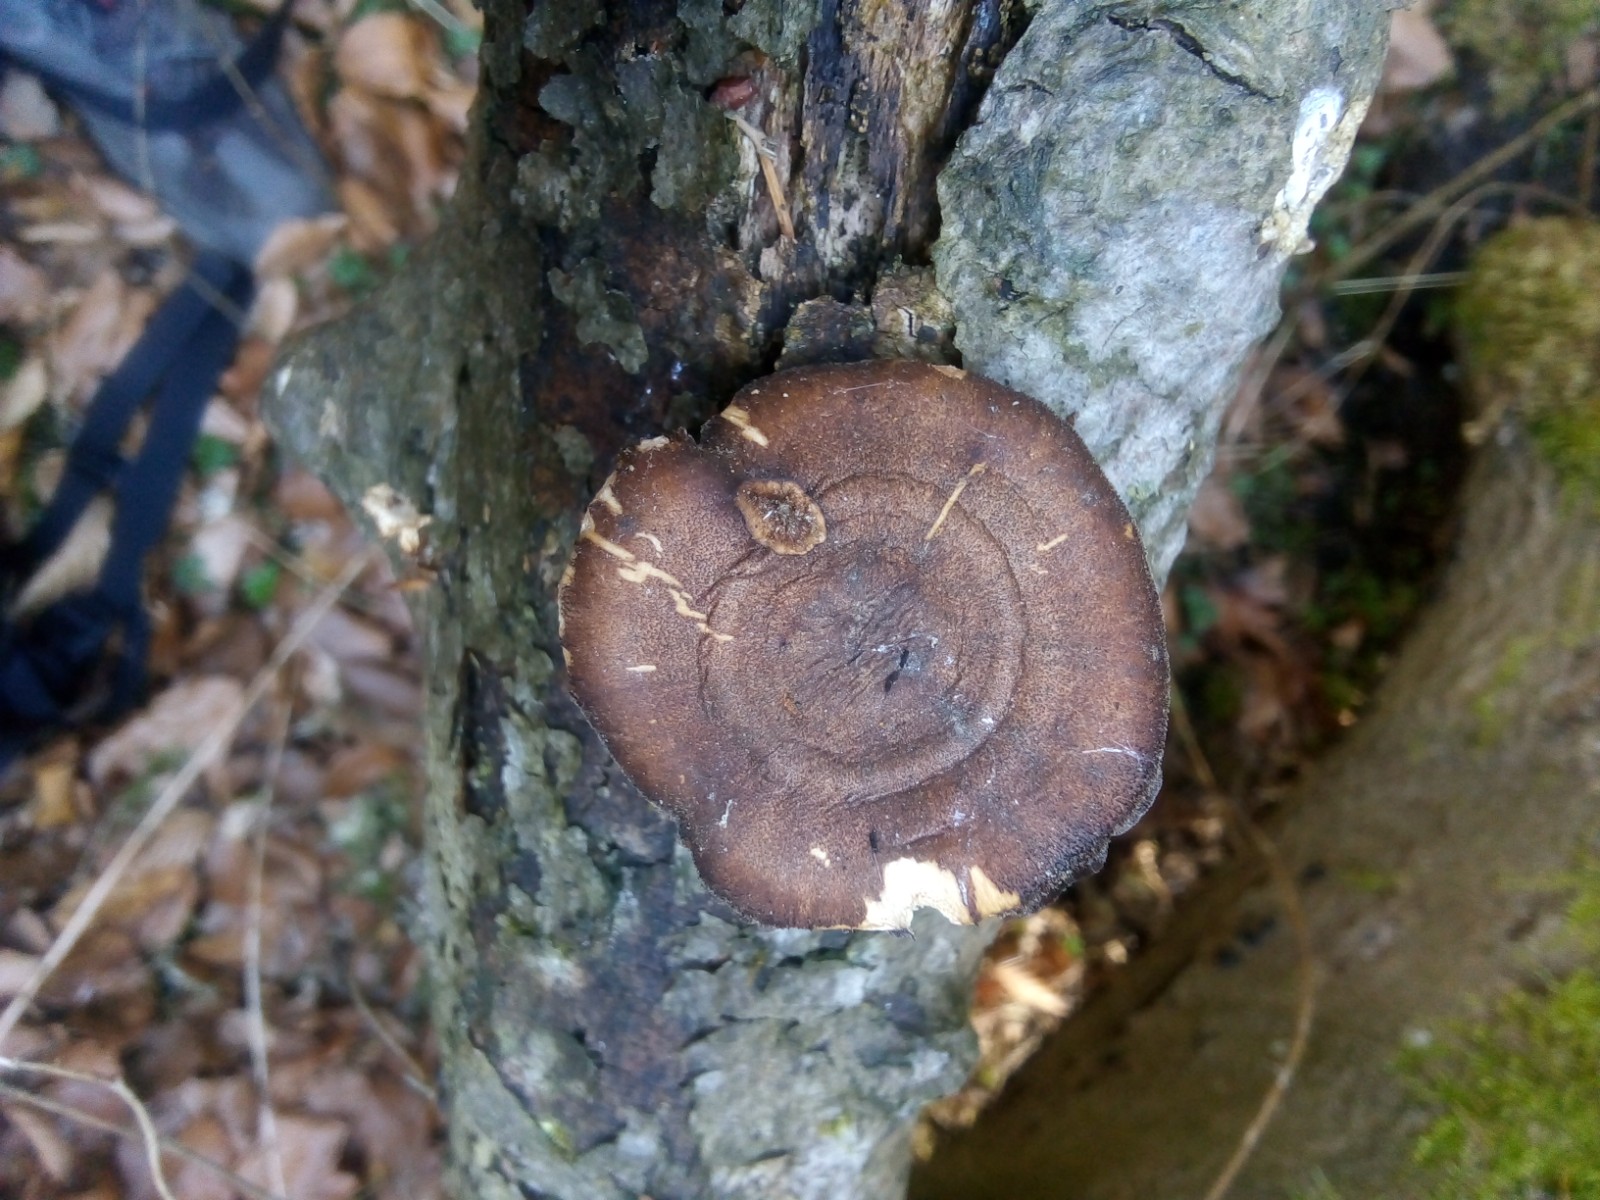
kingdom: Fungi
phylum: Basidiomycota
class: Agaricomycetes
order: Polyporales
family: Polyporaceae
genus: Lentinus
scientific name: Lentinus brumalis
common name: vinter-stilkporesvamp
